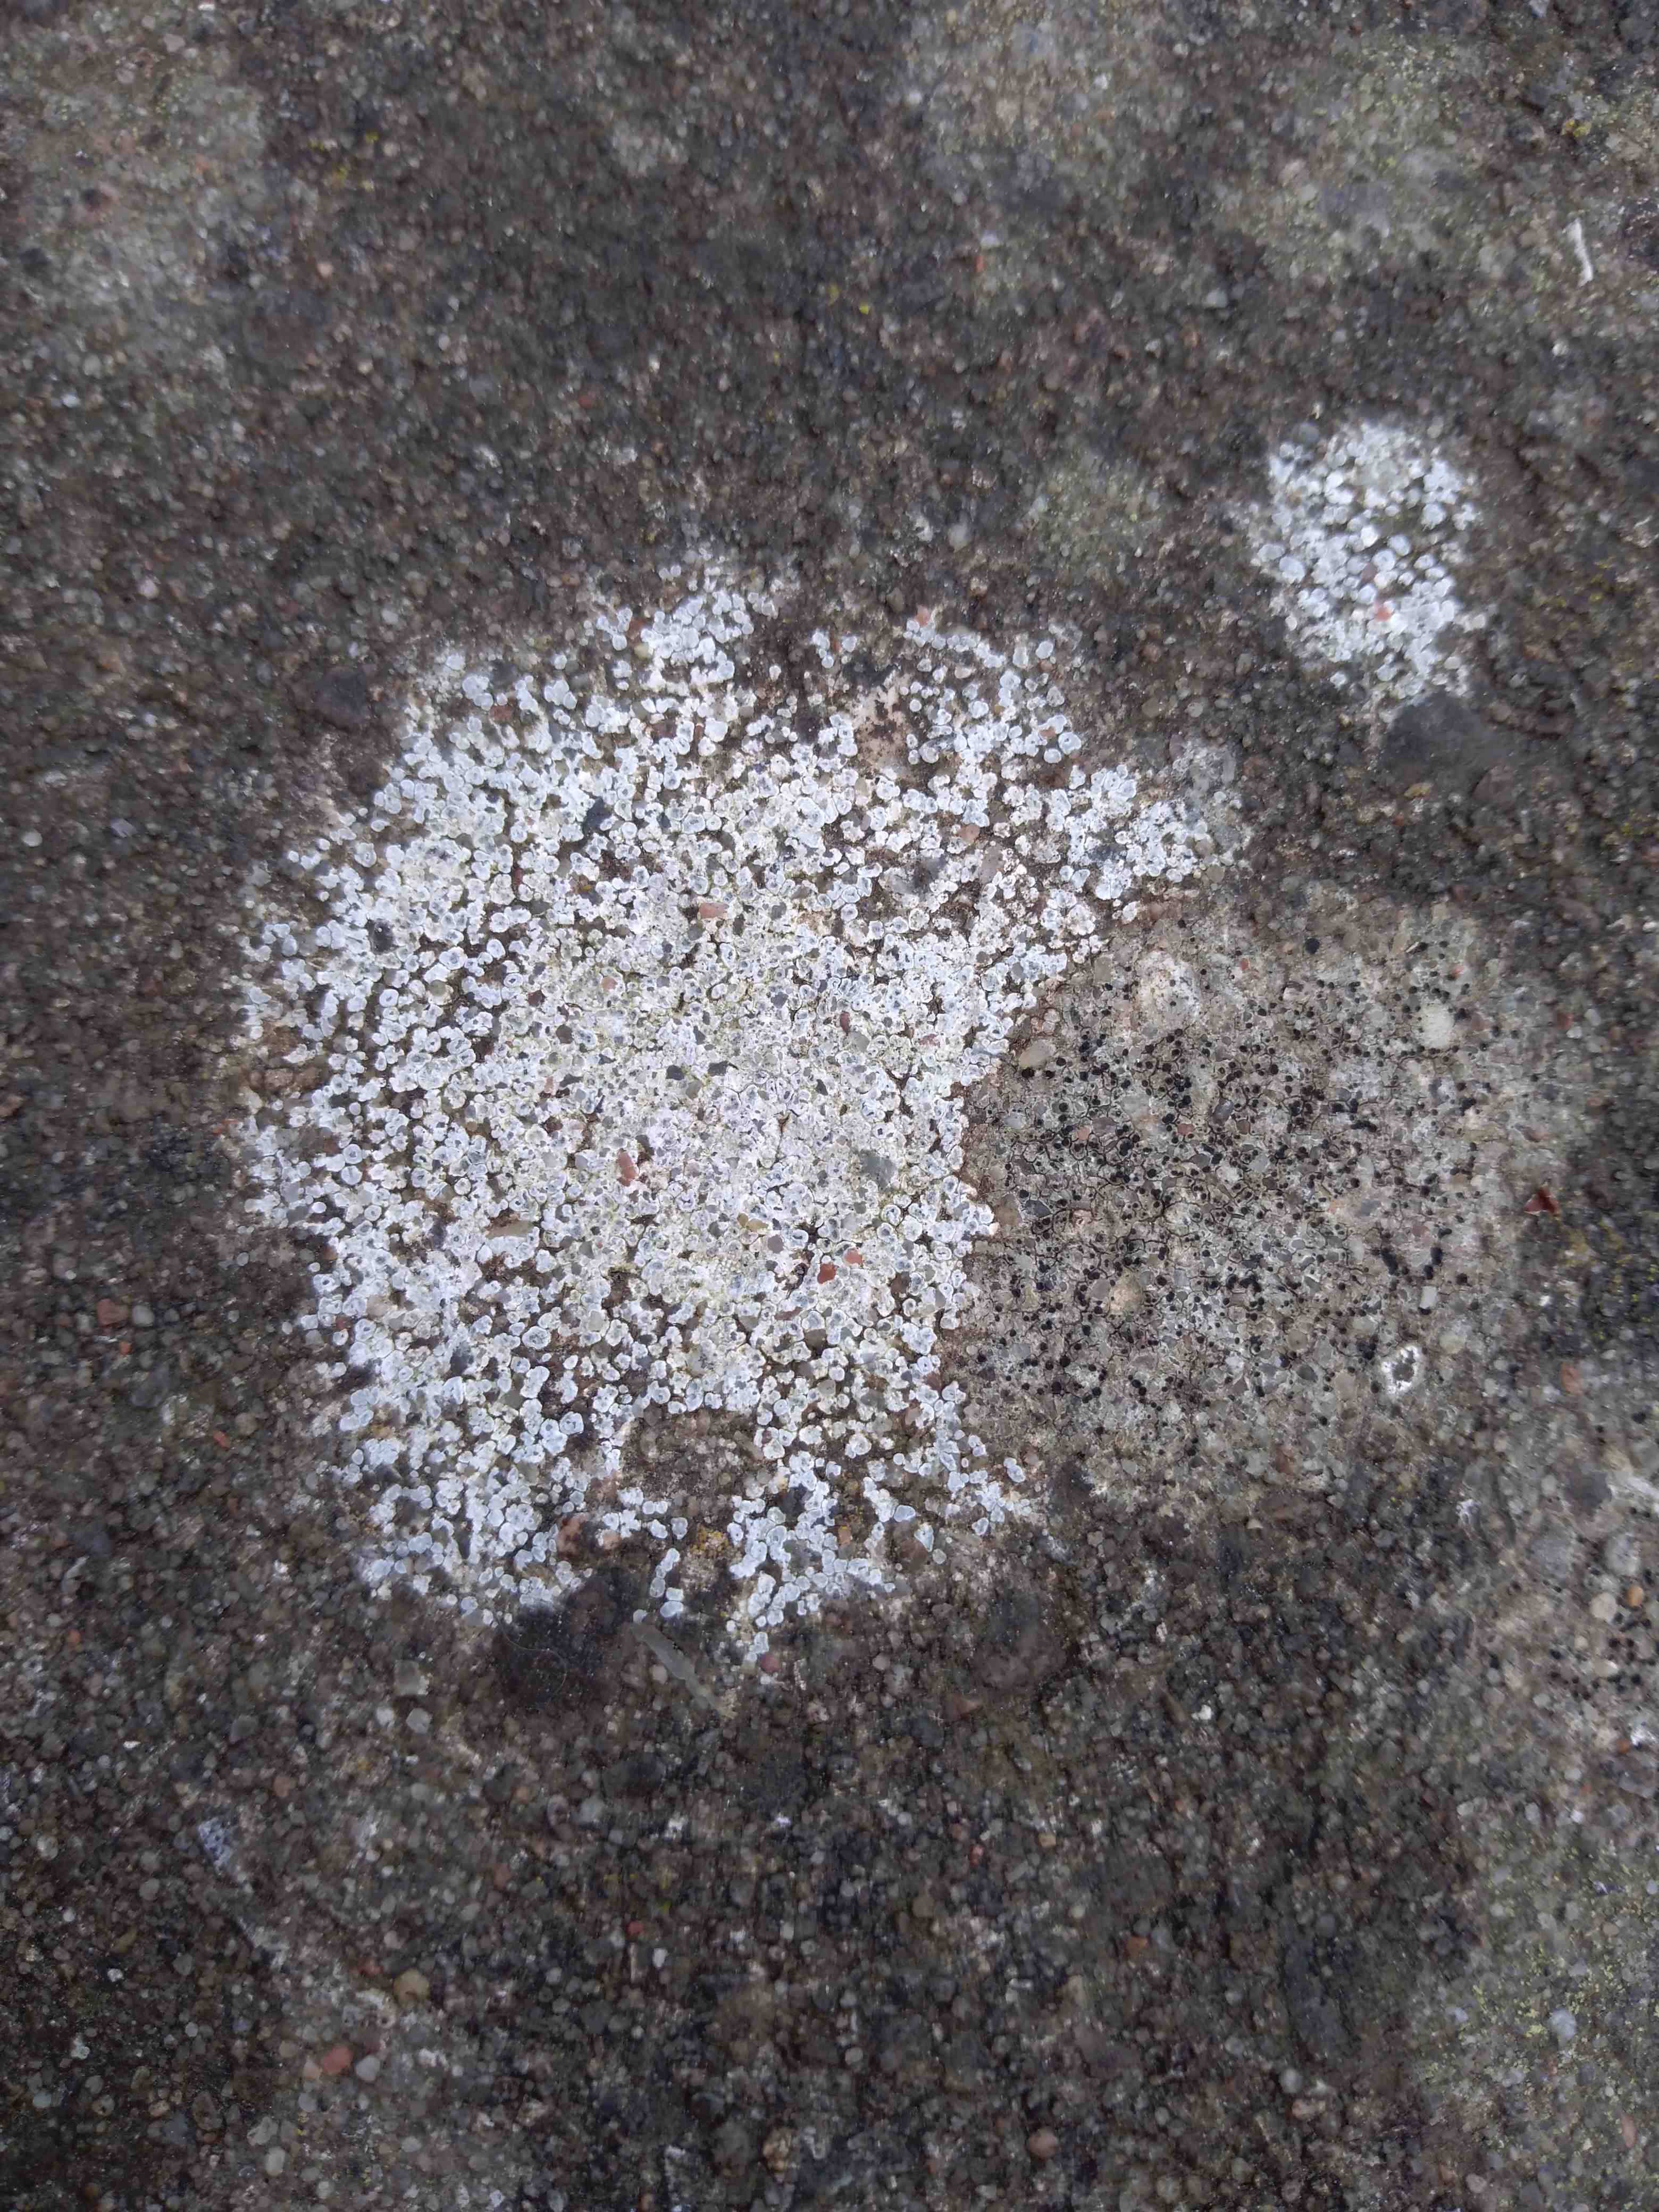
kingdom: Fungi
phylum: Ascomycota
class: Lecanoromycetes
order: Pertusariales
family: Megasporaceae
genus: Circinaria
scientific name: Circinaria contorta
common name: indviklet hulskivelav
